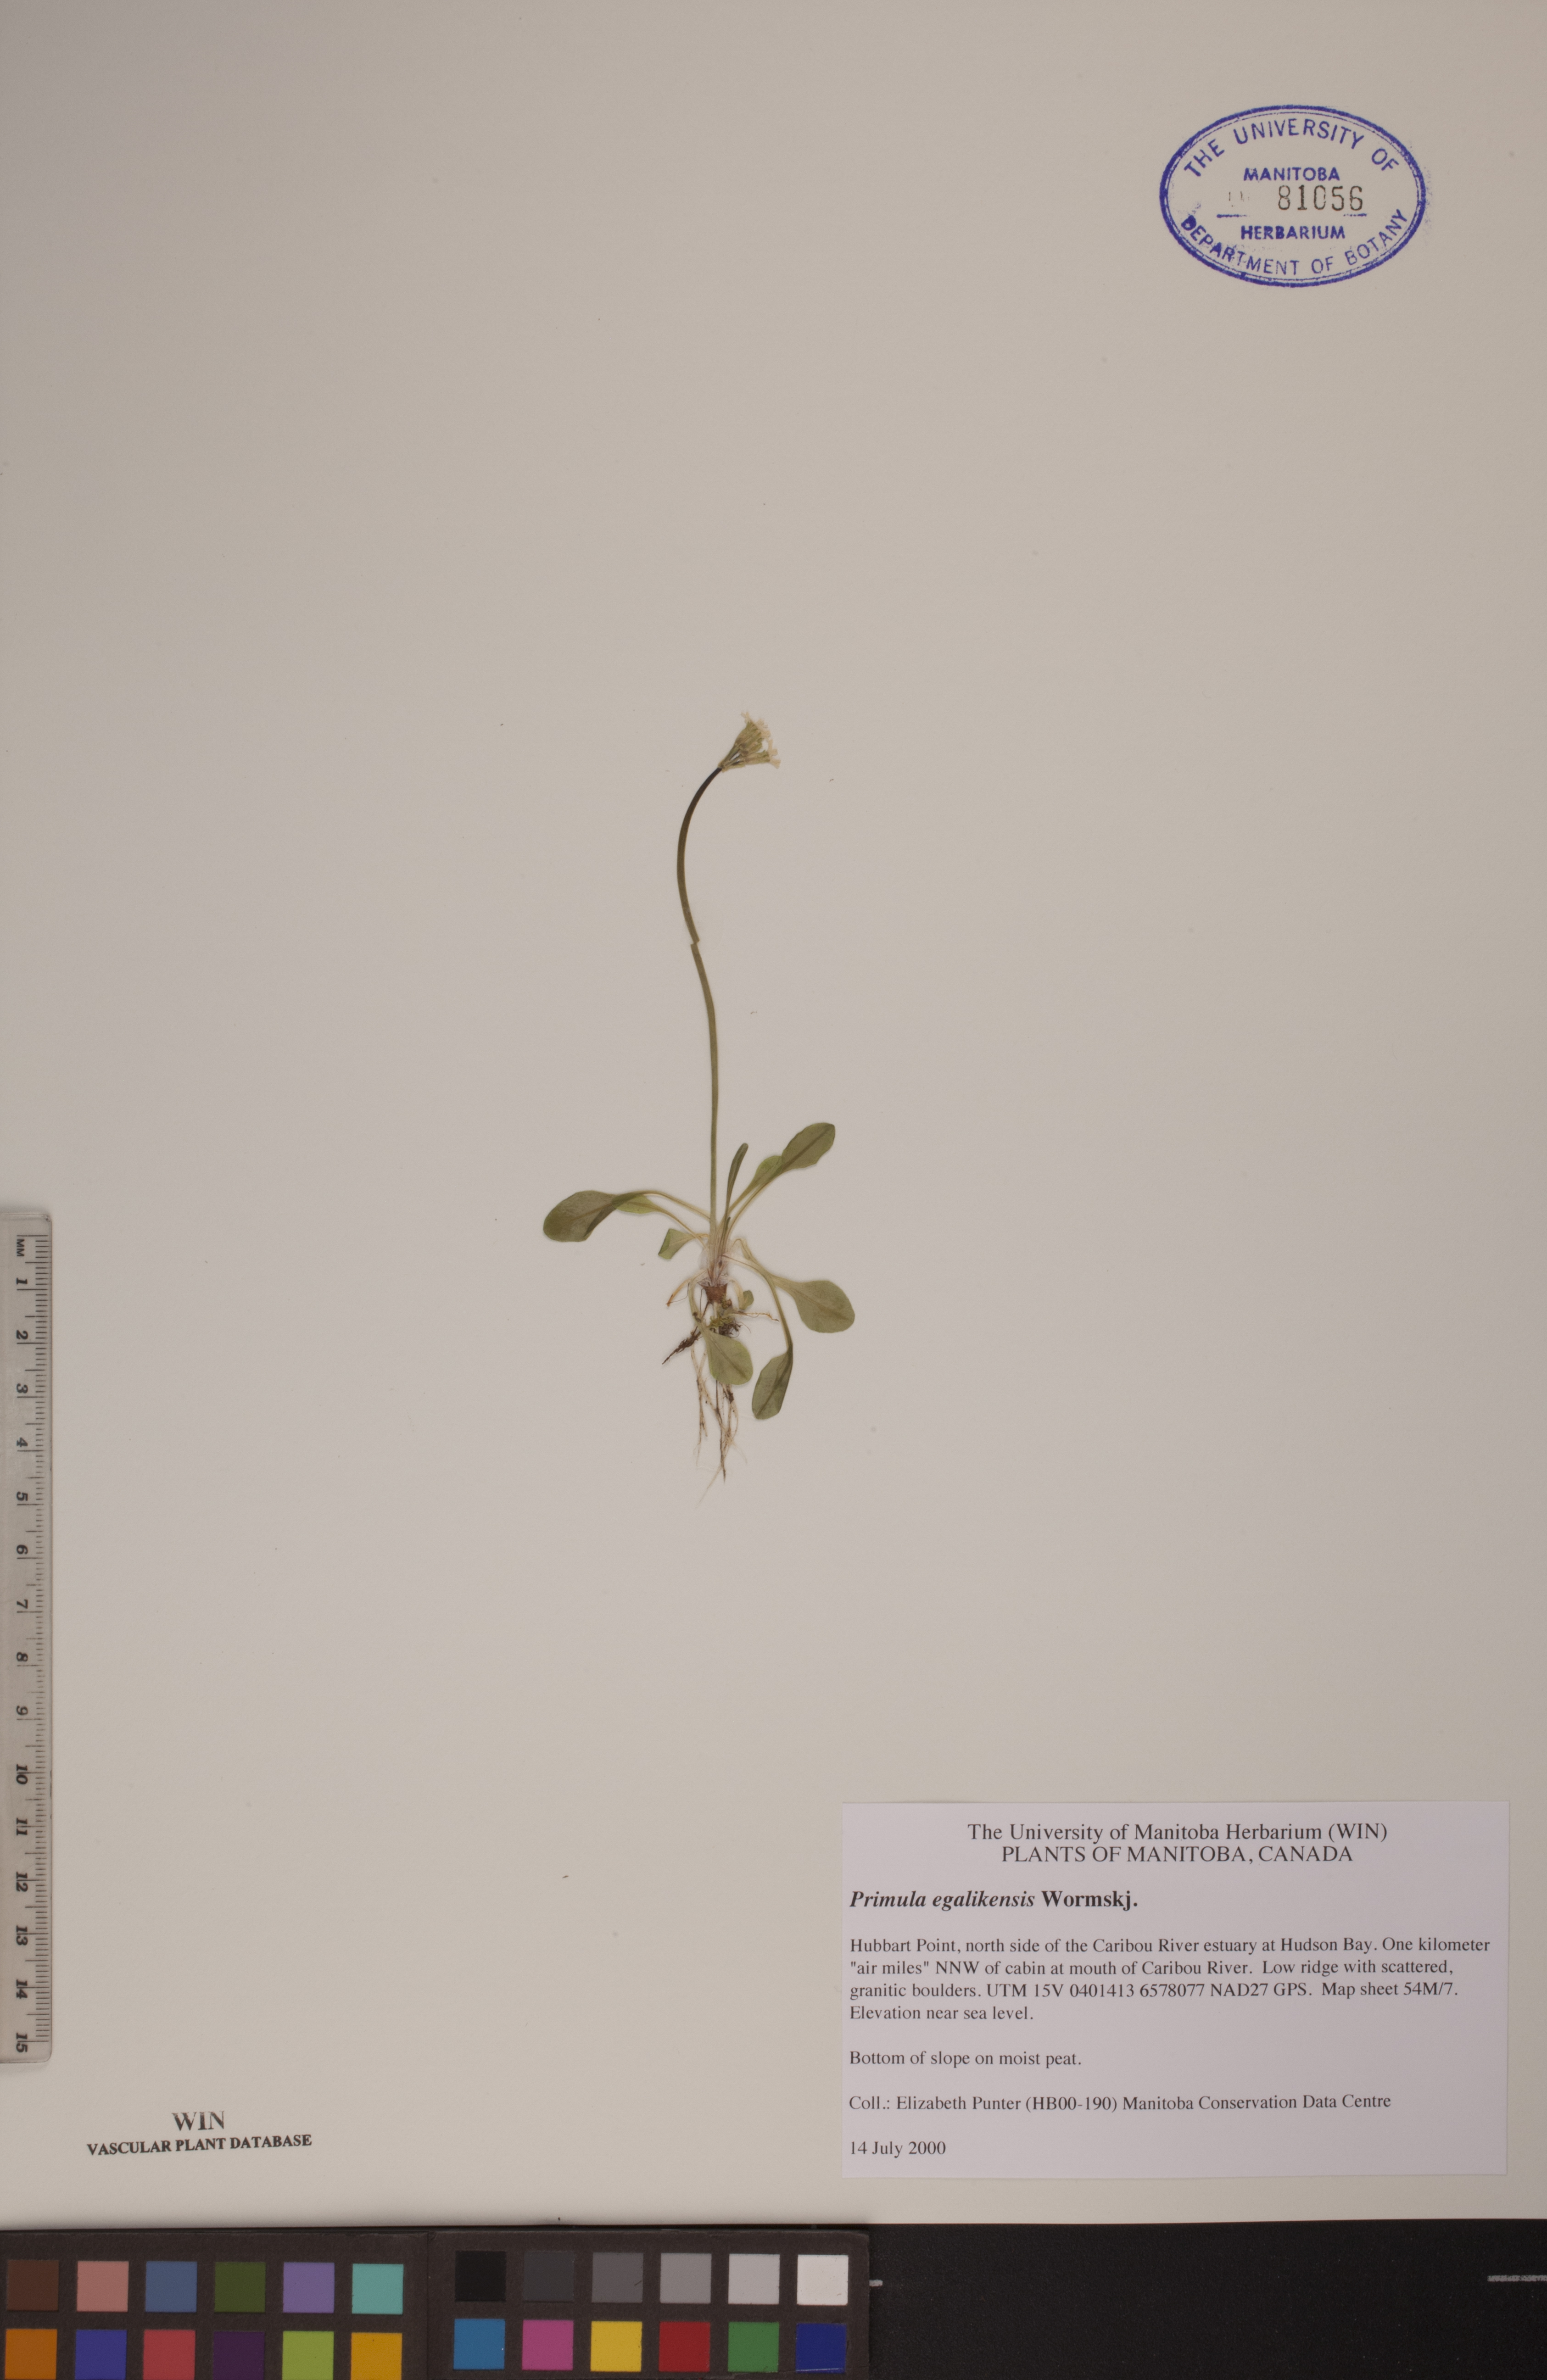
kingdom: Plantae
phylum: Tracheophyta
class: Magnoliopsida
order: Ericales
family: Primulaceae
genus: Primula
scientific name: Primula egaliksensis
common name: Greenland primrose
